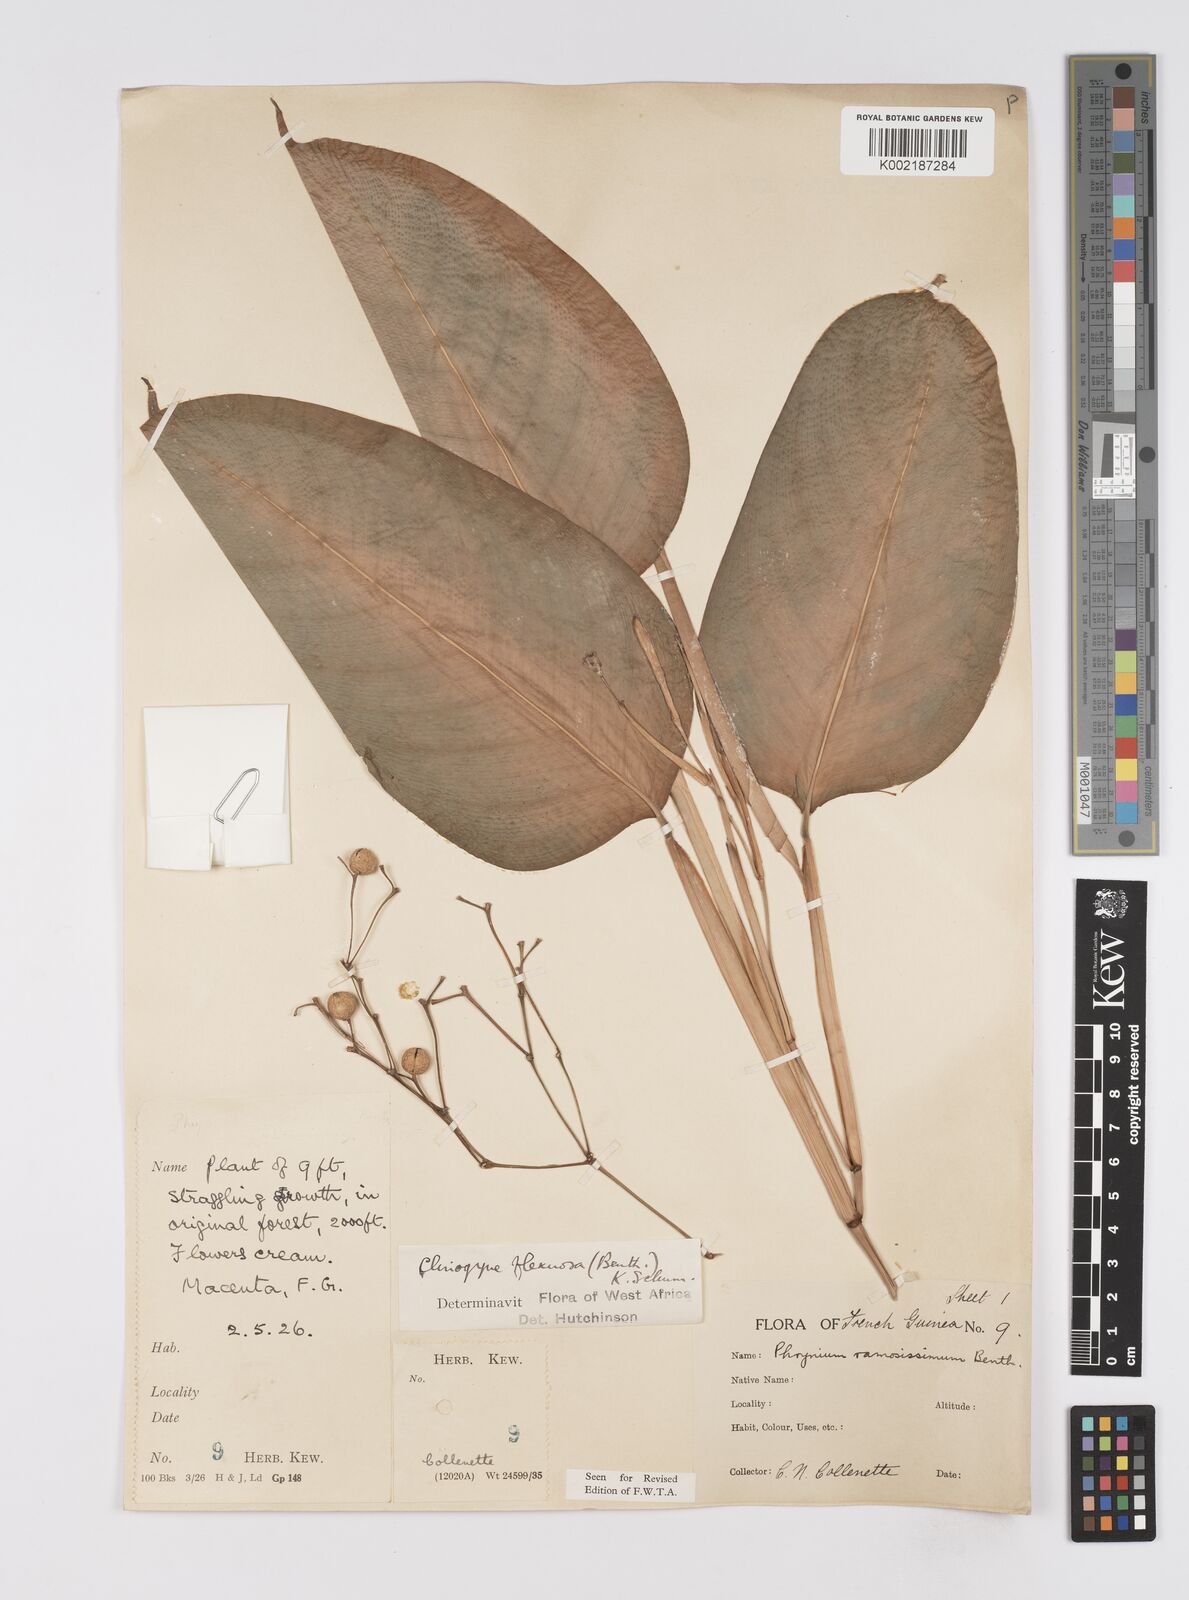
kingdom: Plantae
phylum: Tracheophyta
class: Liliopsida
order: Zingiberales
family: Marantaceae
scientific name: Marantaceae
